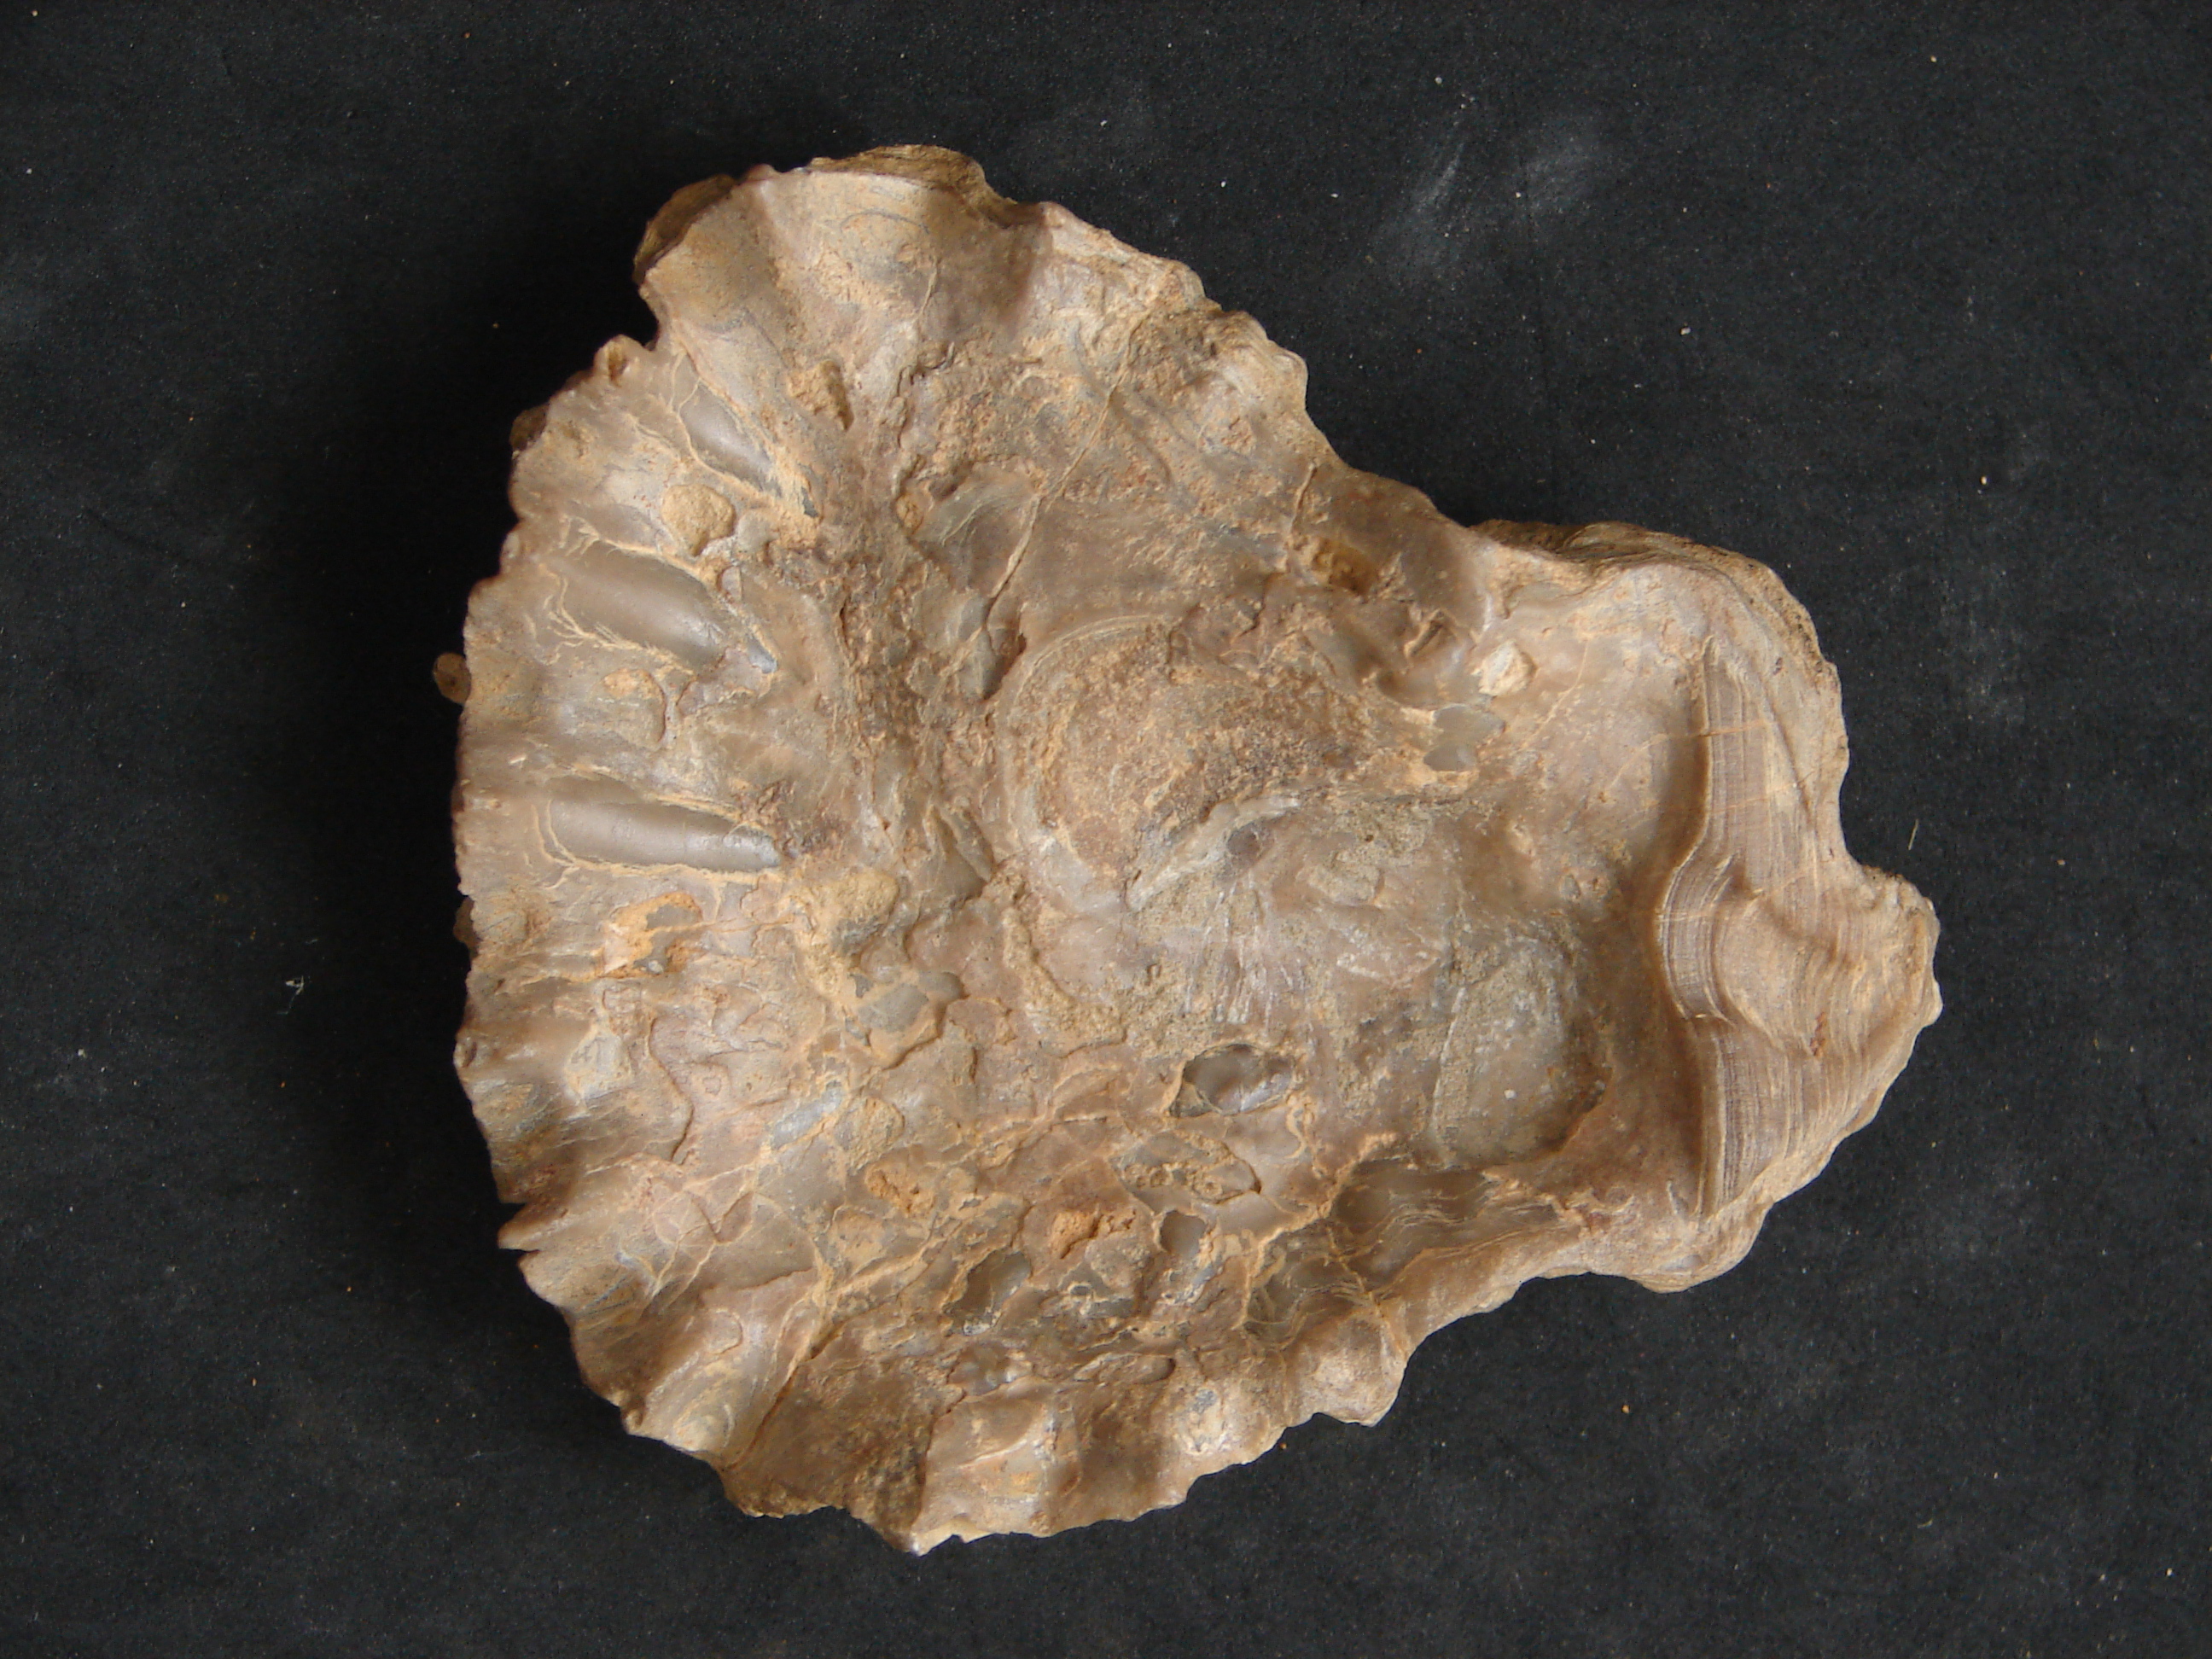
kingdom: Animalia
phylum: Mollusca
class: Bivalvia
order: Ostreida
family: Ostreidae
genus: Ostrea
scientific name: Ostrea marshii
